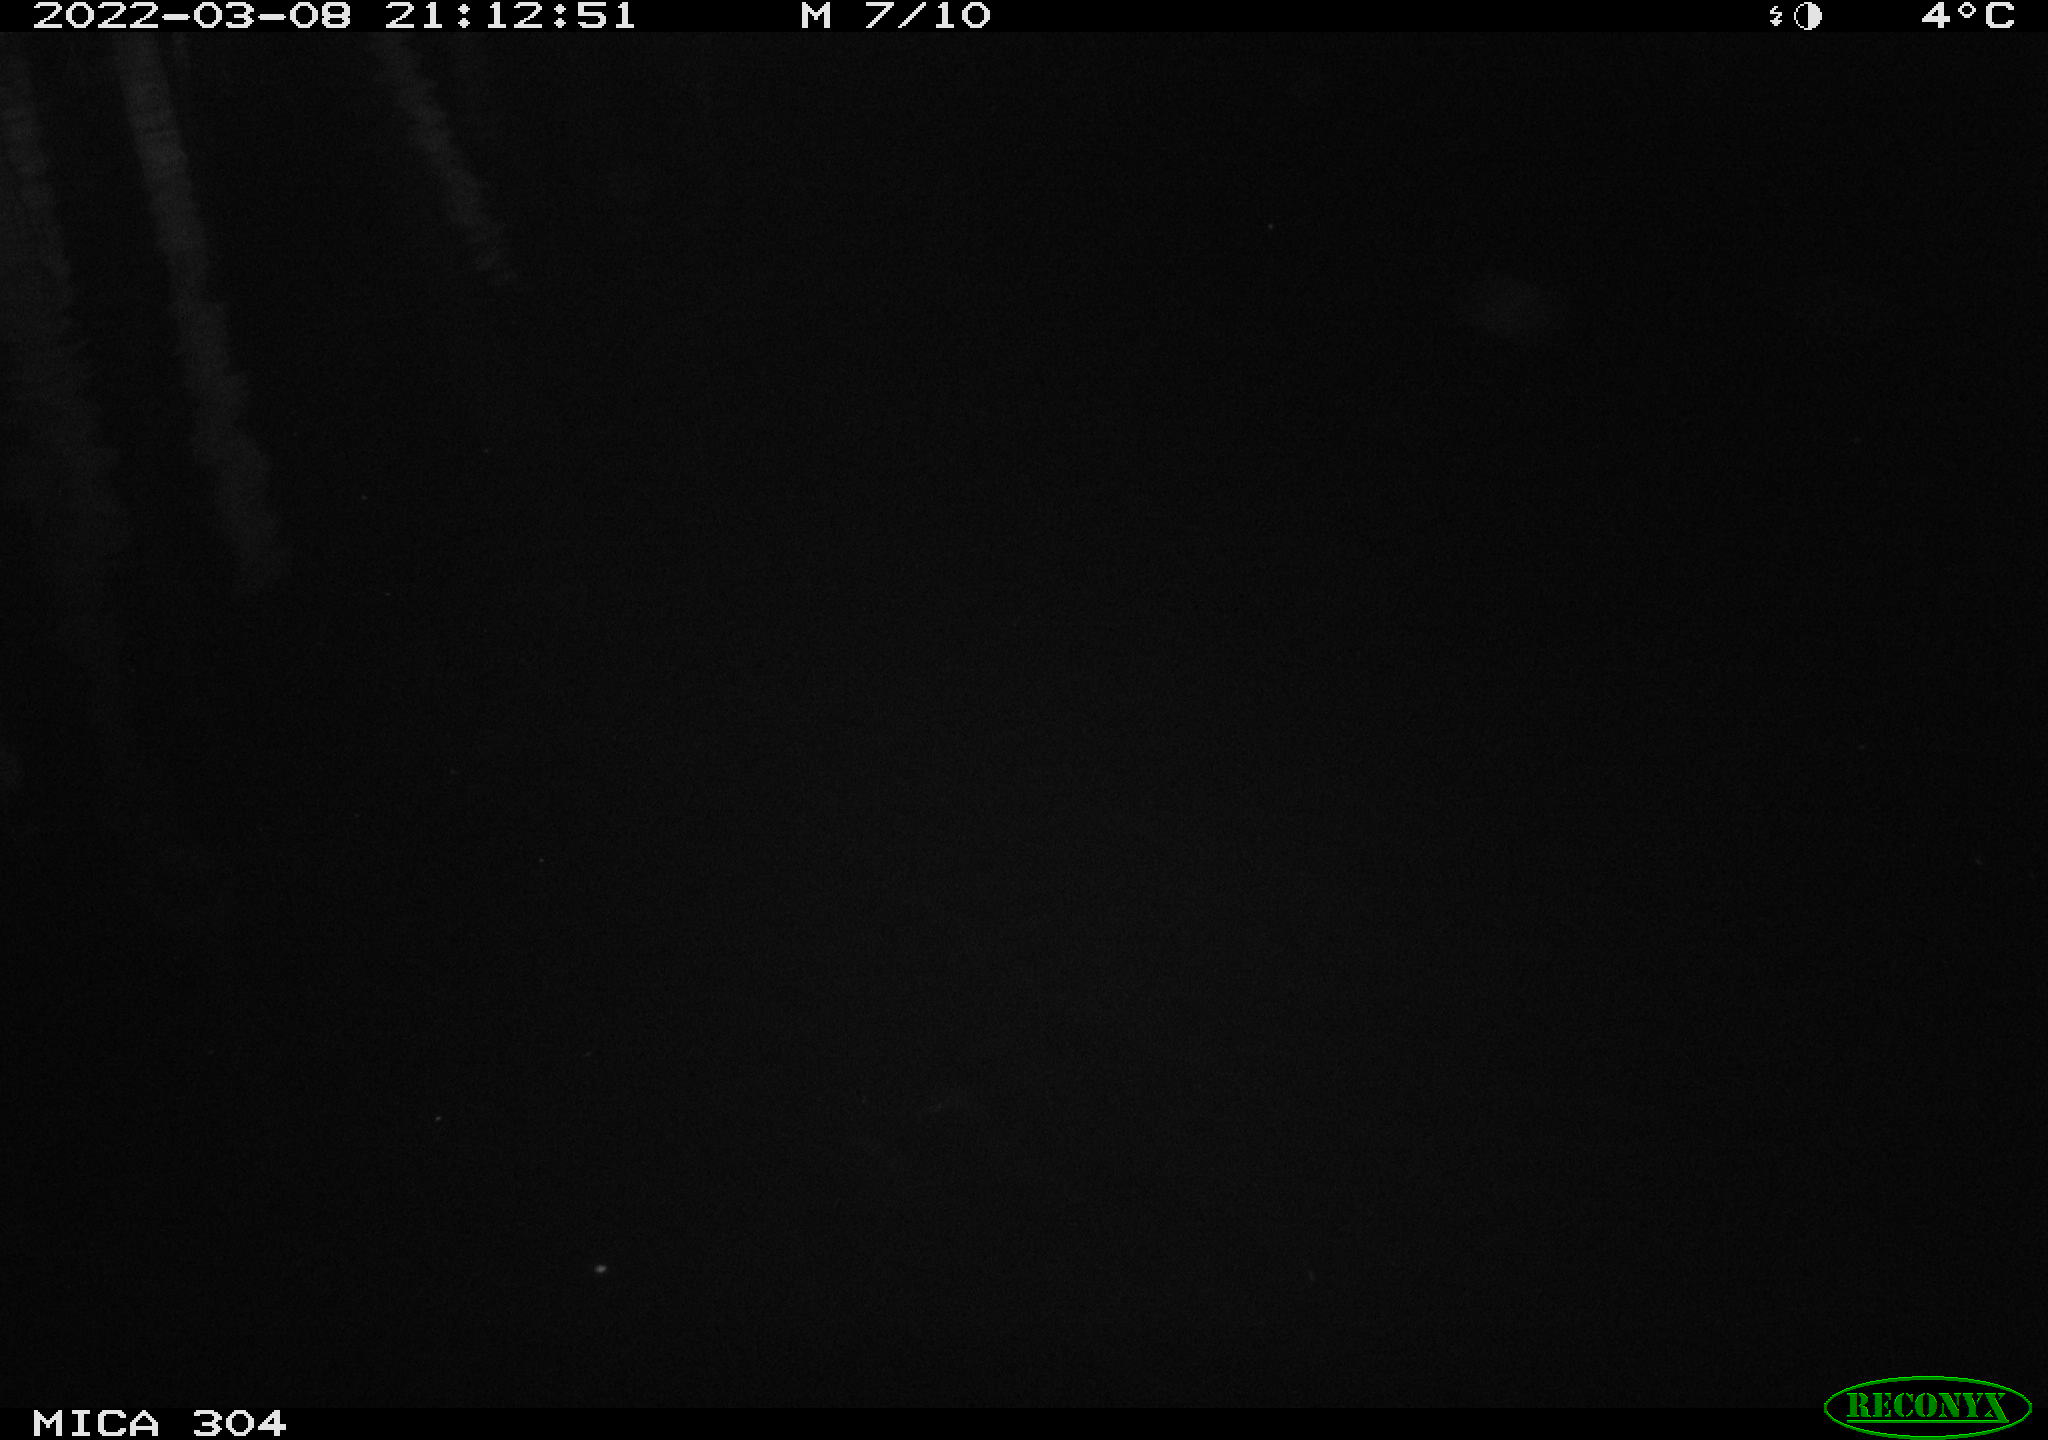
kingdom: Animalia
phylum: Chordata
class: Aves
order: Anseriformes
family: Anatidae
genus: Anas
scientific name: Anas platyrhynchos
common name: Mallard
